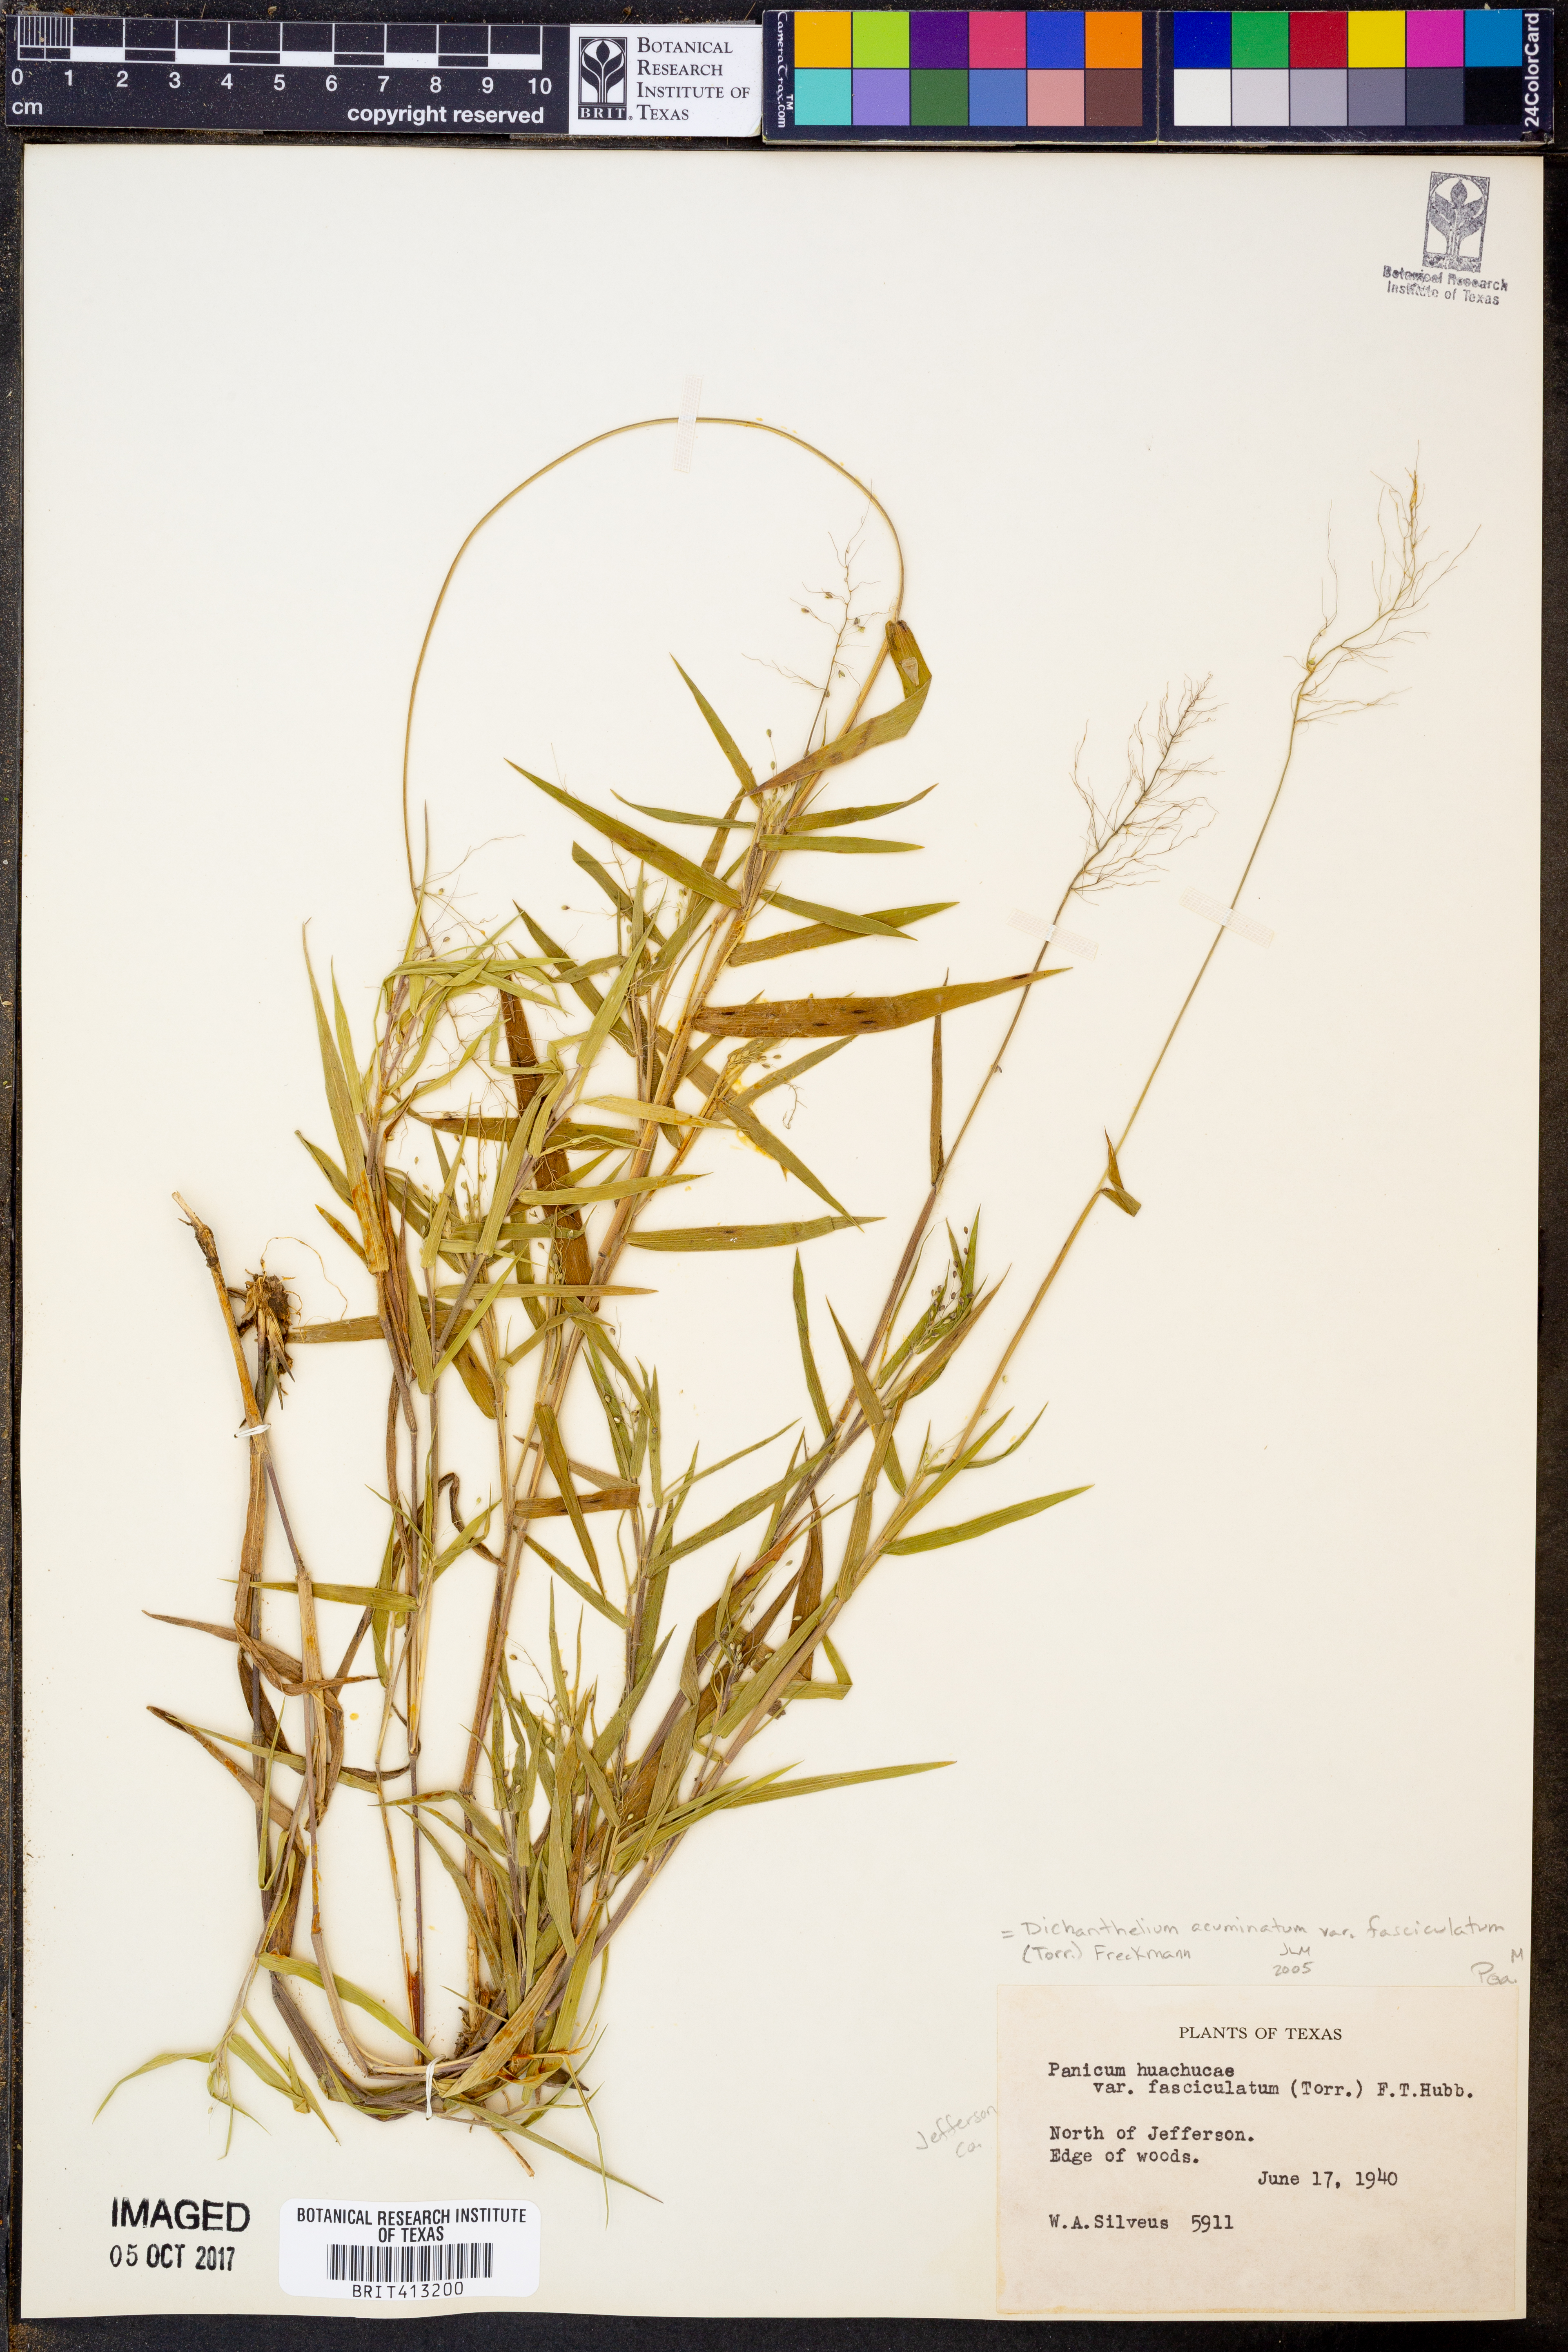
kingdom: Plantae
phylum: Tracheophyta
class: Liliopsida
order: Poales
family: Poaceae
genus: Dichanthelium
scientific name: Dichanthelium lanuginosum
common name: Woolly panicgrass
